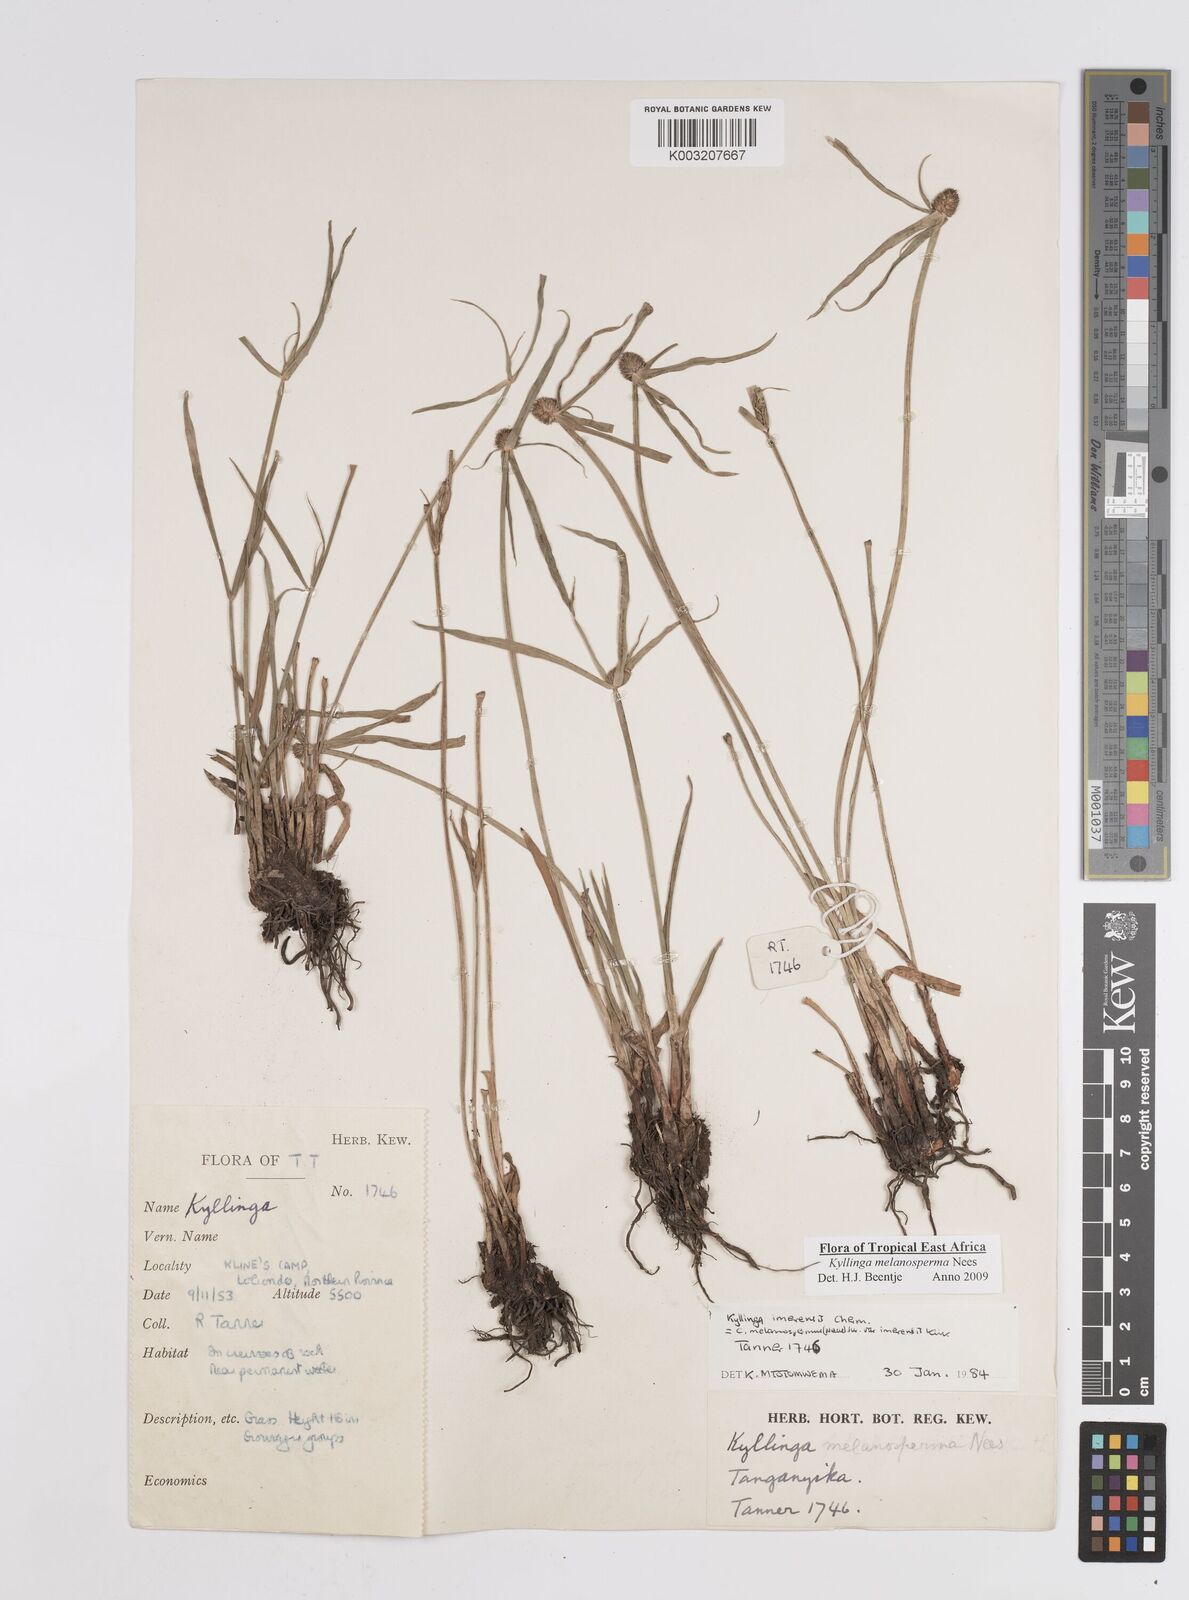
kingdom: Plantae
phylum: Tracheophyta
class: Liliopsida
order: Poales
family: Cyperaceae
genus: Cyperus
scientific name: Cyperus melanospermus
